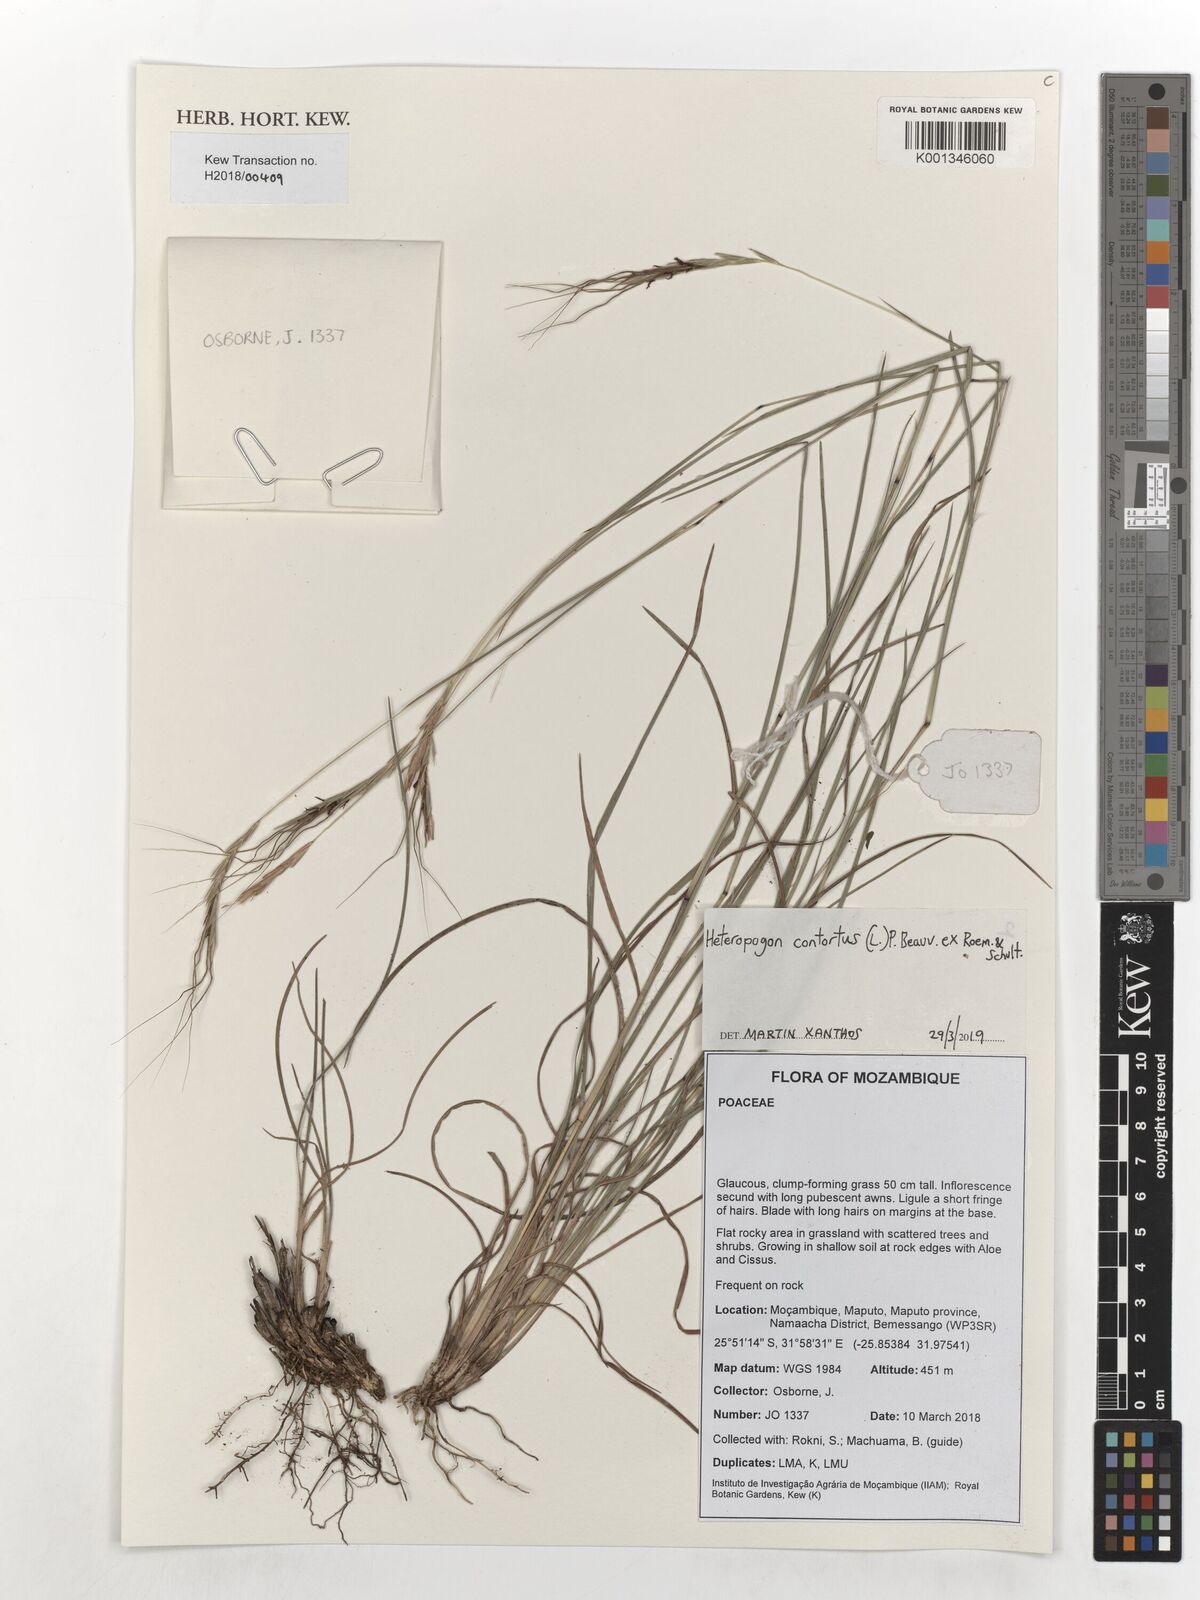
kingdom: Plantae
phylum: Tracheophyta
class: Liliopsida
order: Poales
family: Poaceae
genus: Heteropogon
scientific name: Heteropogon contortus
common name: Tanglehead
